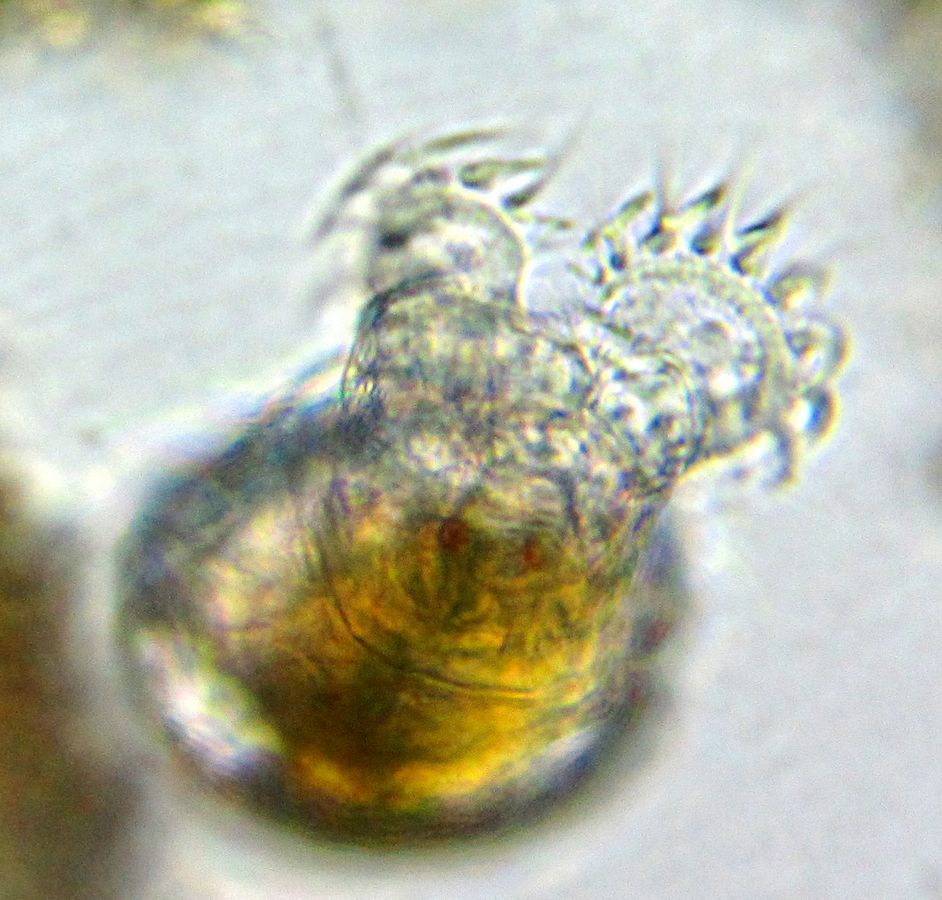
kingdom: Animalia
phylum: Rotifera
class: Eurotatoria
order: Bdelloidea
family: Philodinidae
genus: Rotaria
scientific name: Rotaria citrina
